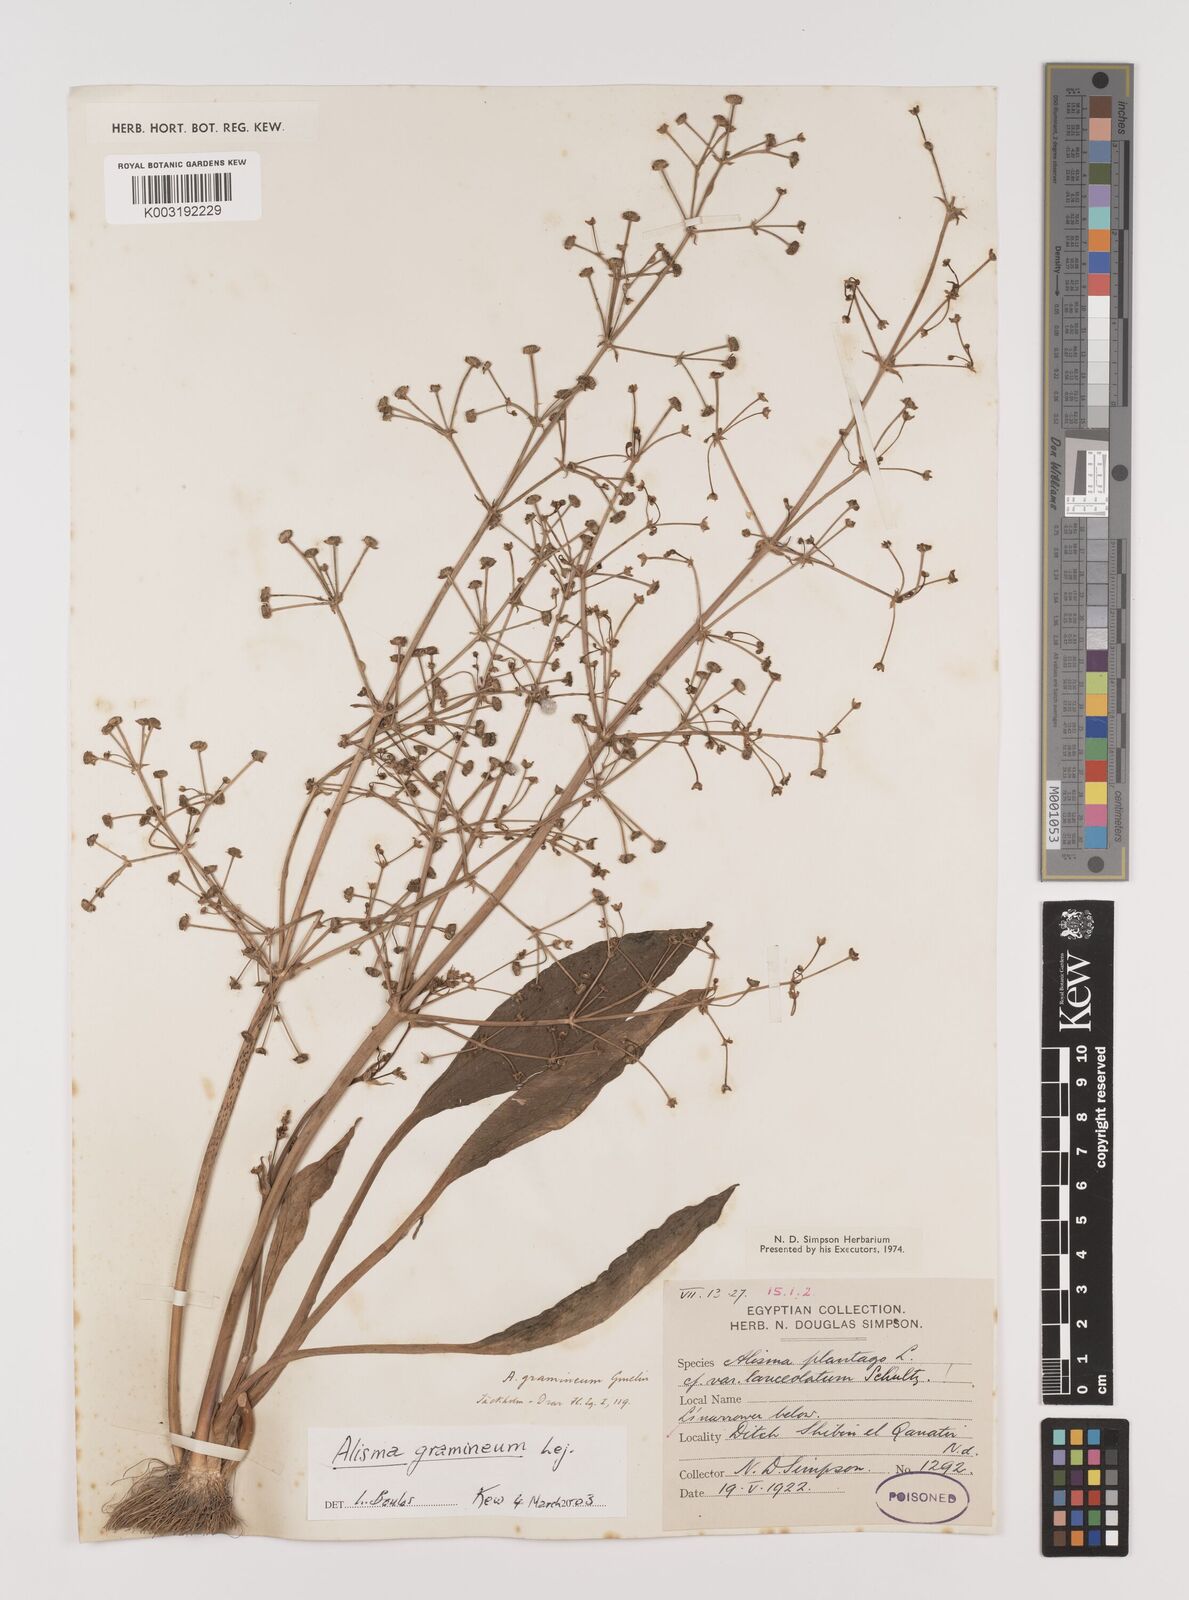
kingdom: Plantae
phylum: Tracheophyta
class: Liliopsida
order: Alismatales
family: Alismataceae
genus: Alisma
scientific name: Alisma gramineum
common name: Ribbon-leaved water-plantain
